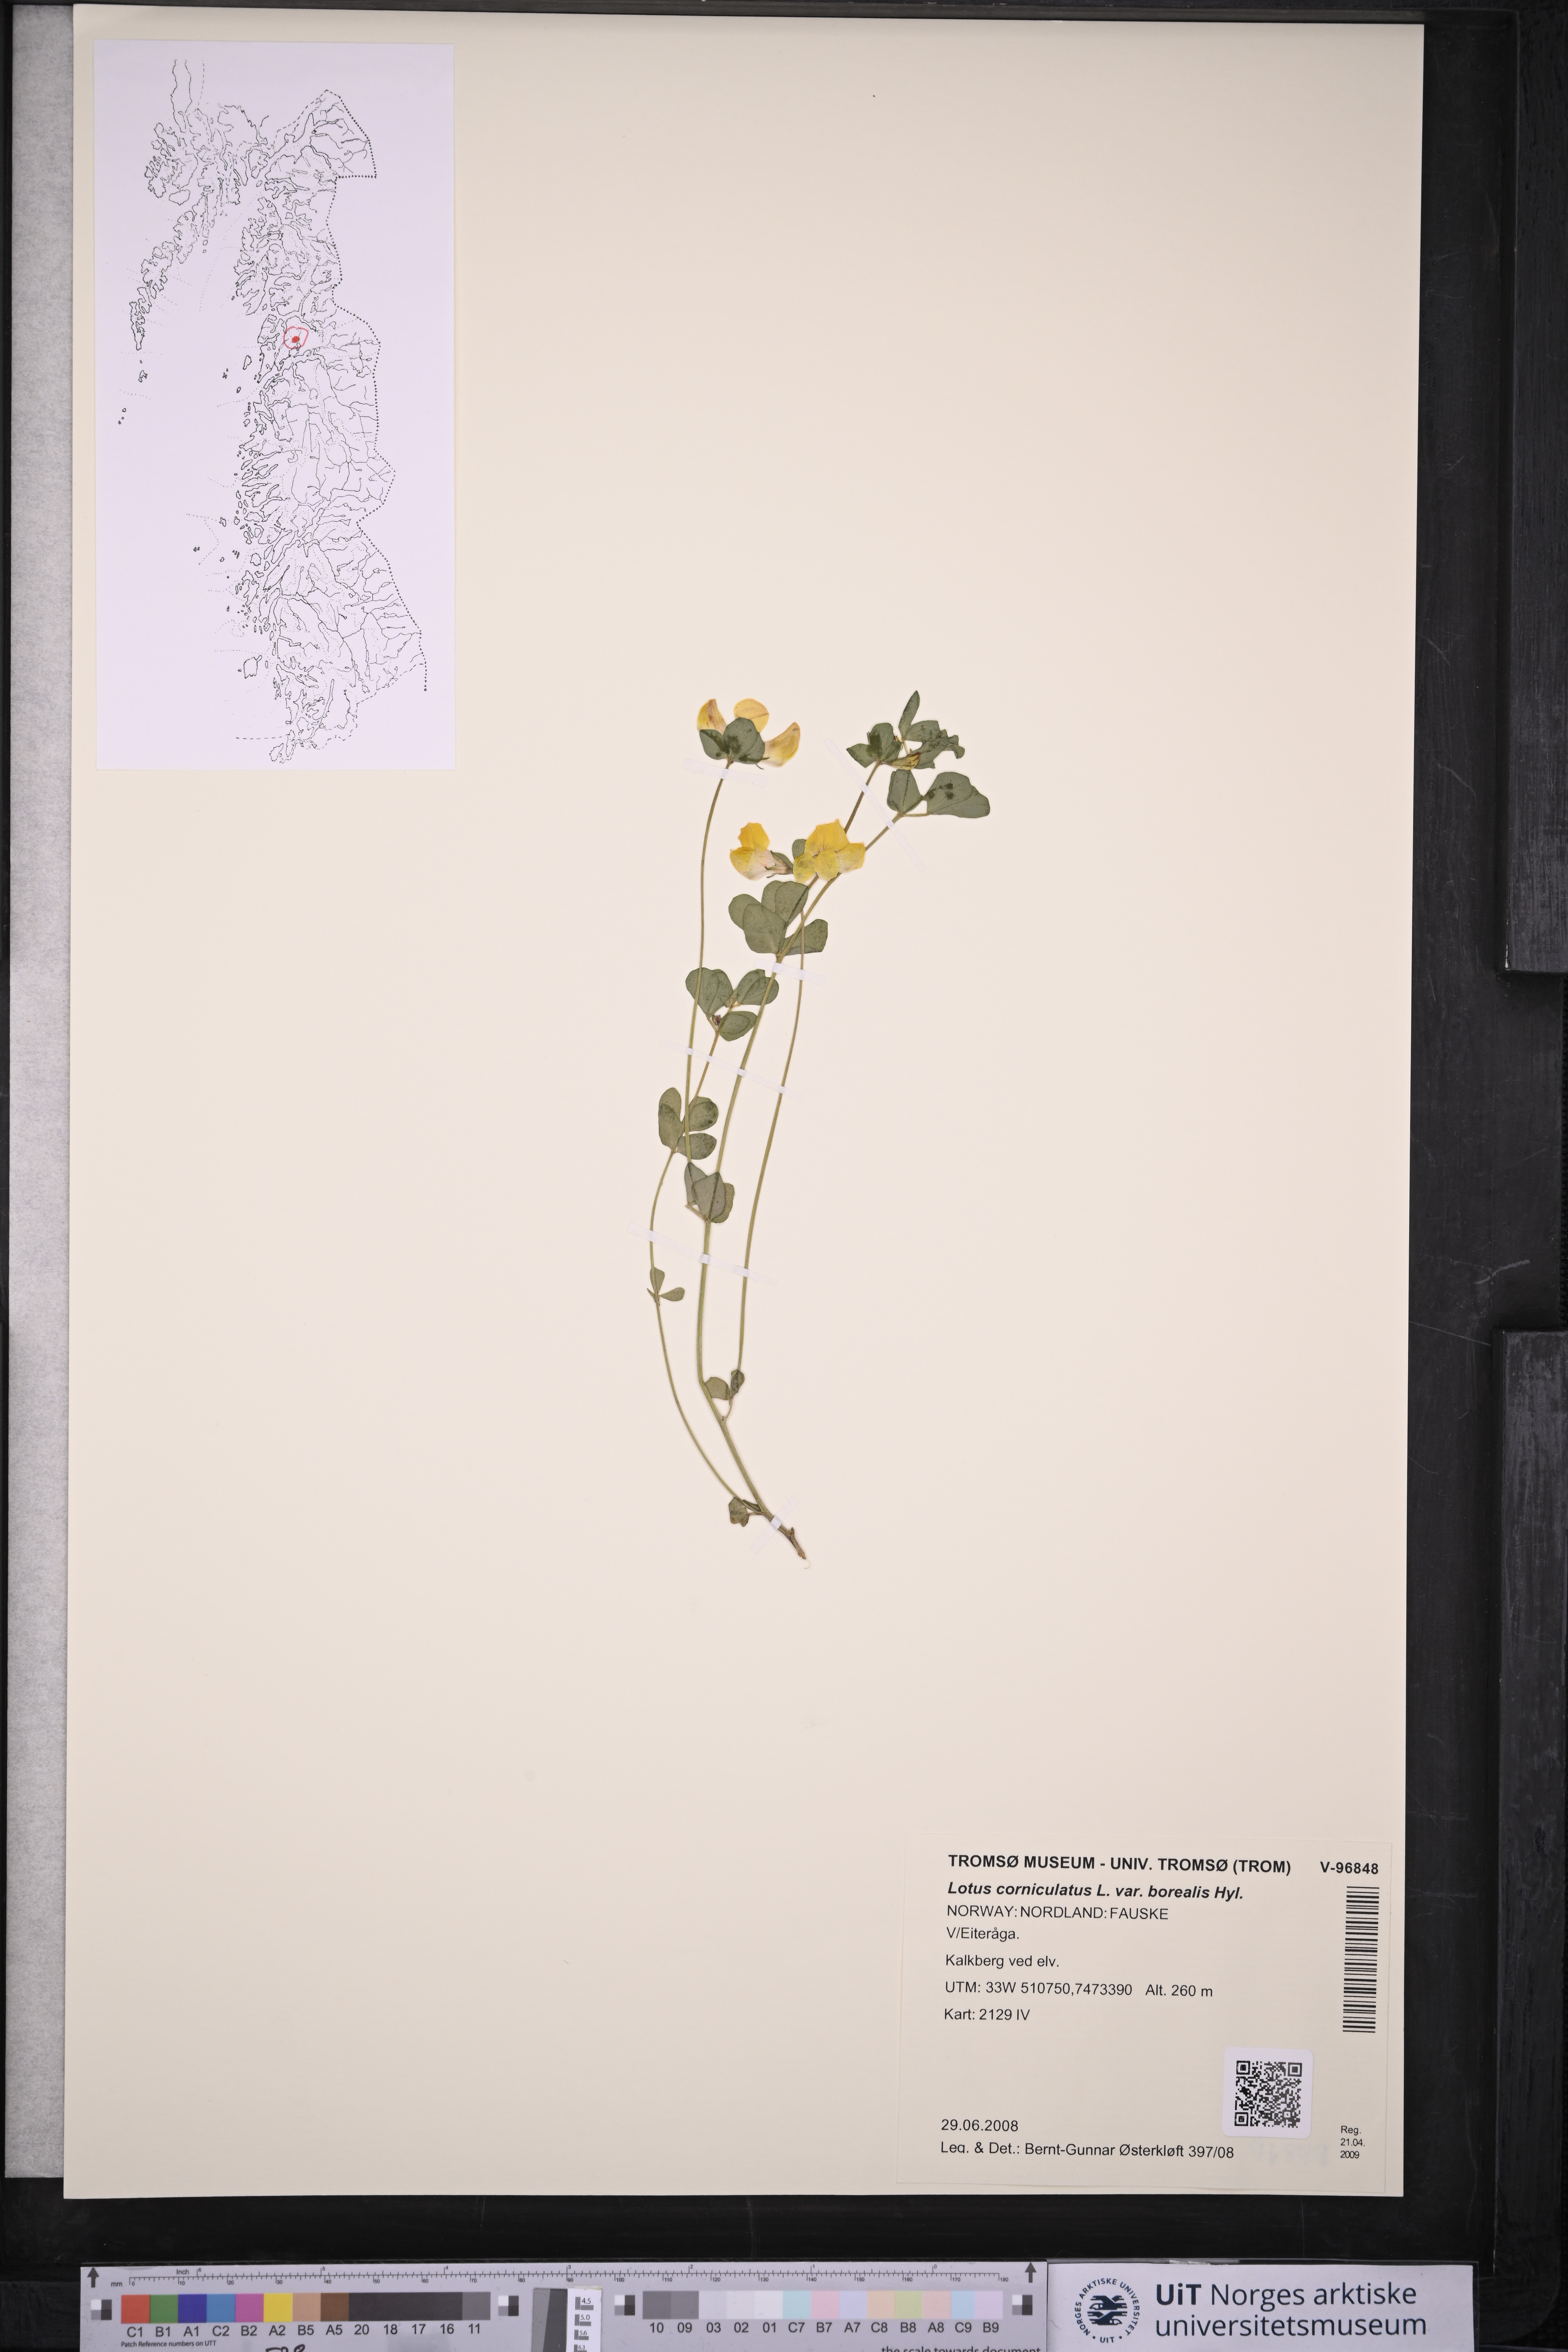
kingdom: Plantae
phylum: Tracheophyta
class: Magnoliopsida
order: Fabales
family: Fabaceae
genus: Lotus
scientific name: Lotus corniculatus
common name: Common bird's-foot-trefoil
